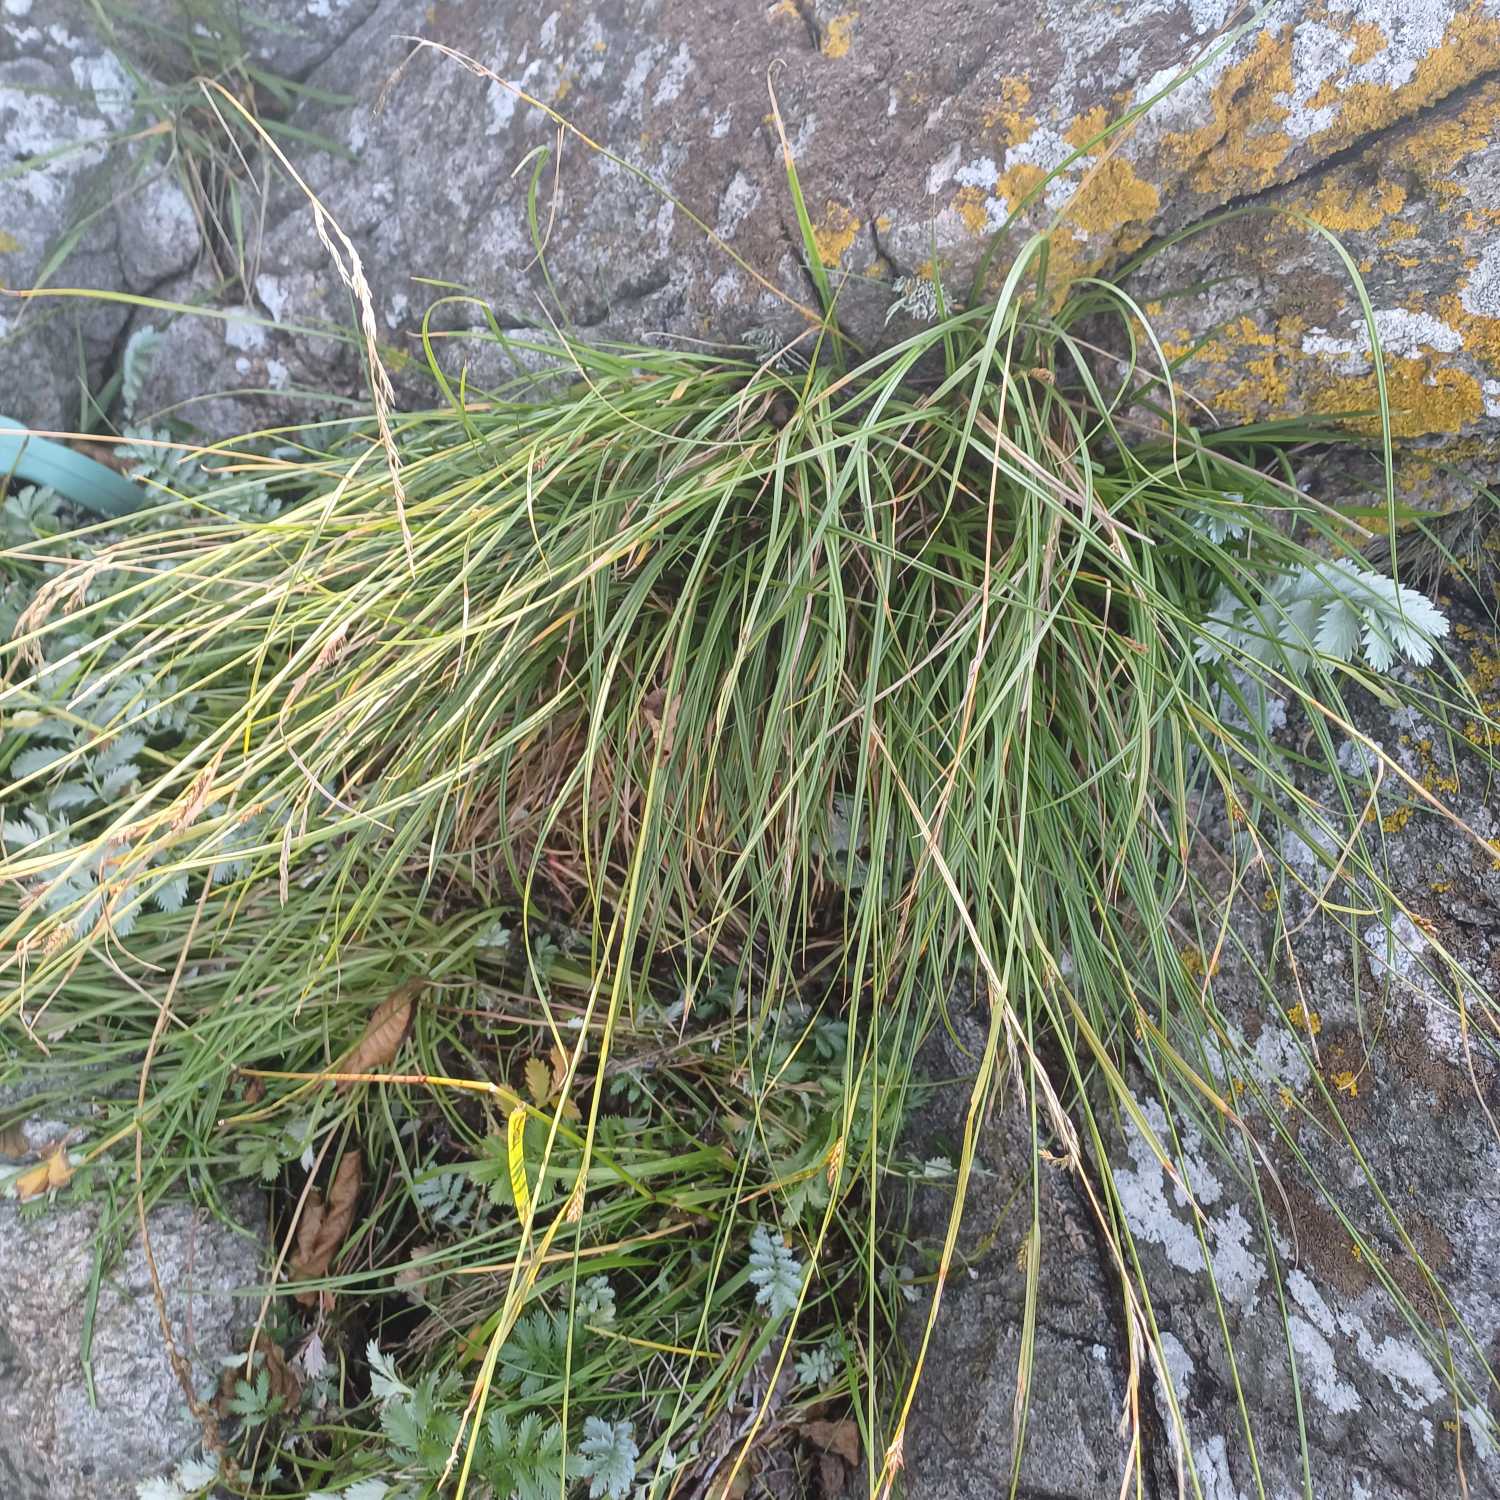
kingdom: Plantae
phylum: Tracheophyta
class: Liliopsida
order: Poales
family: Cyperaceae
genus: Carex
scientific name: Carex distans
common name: Fjernakset star
